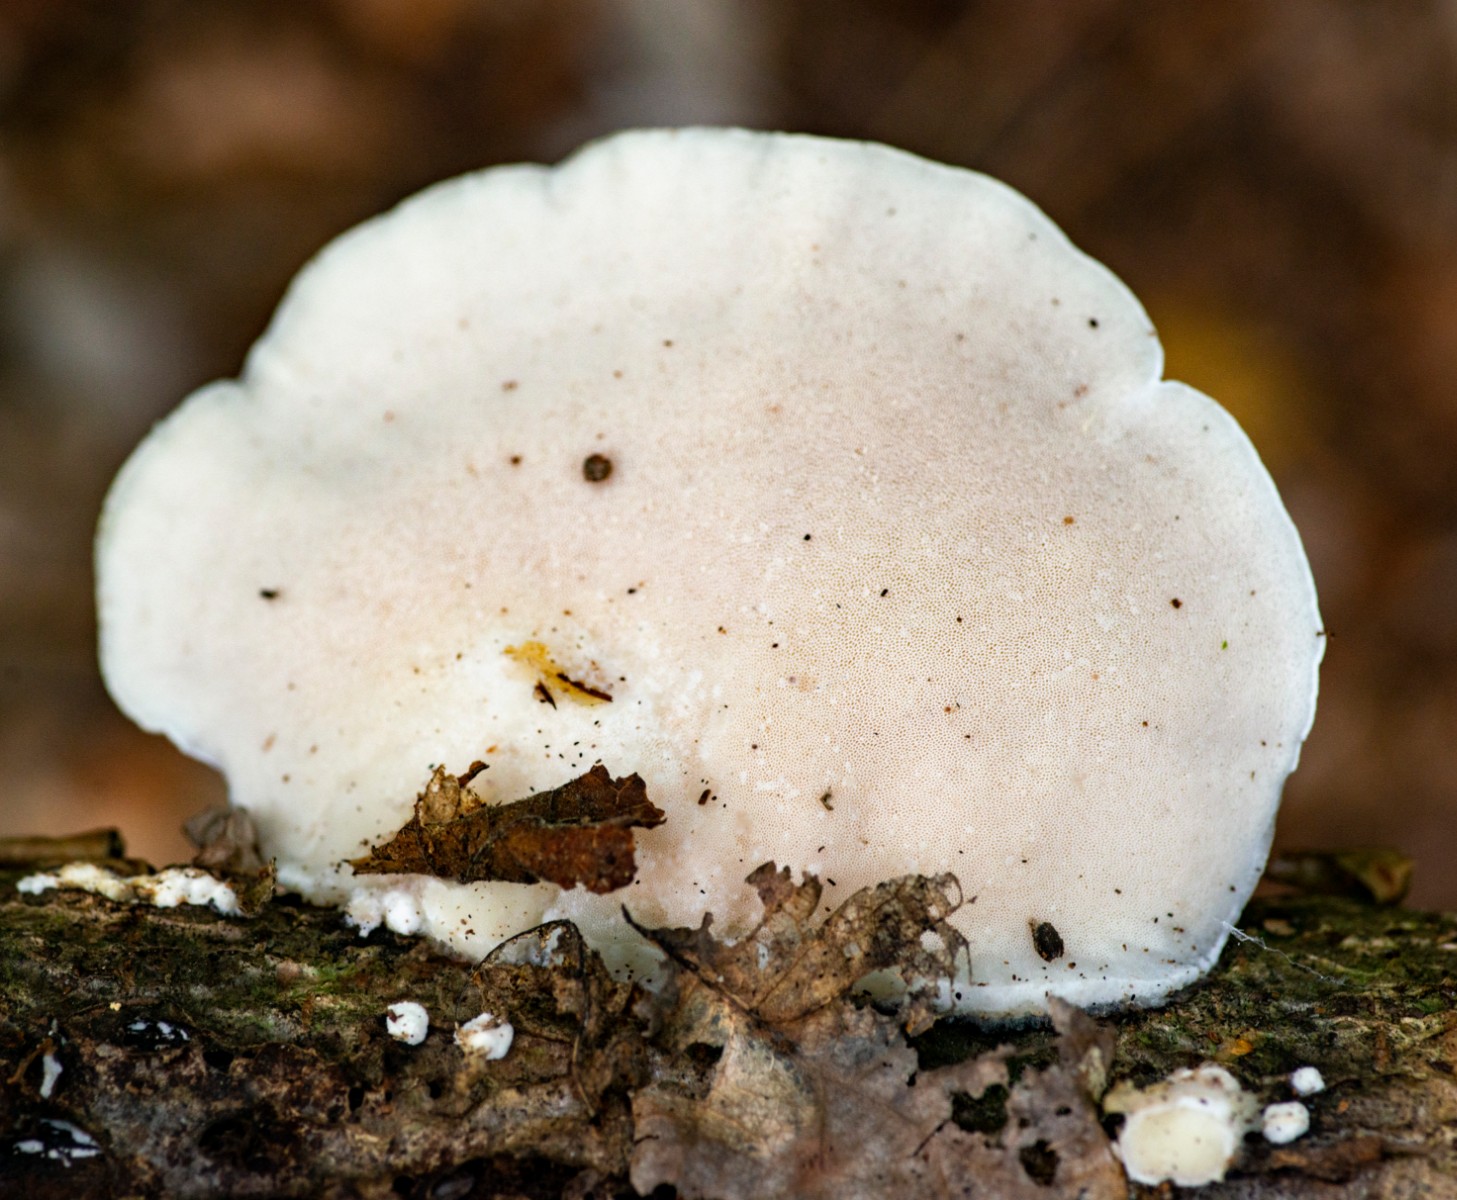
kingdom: Fungi
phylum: Basidiomycota
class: Agaricomycetes
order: Polyporales
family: Incrustoporiaceae
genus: Tyromyces
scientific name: Tyromyces lacteus
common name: mælkehvid kødporesvamp
